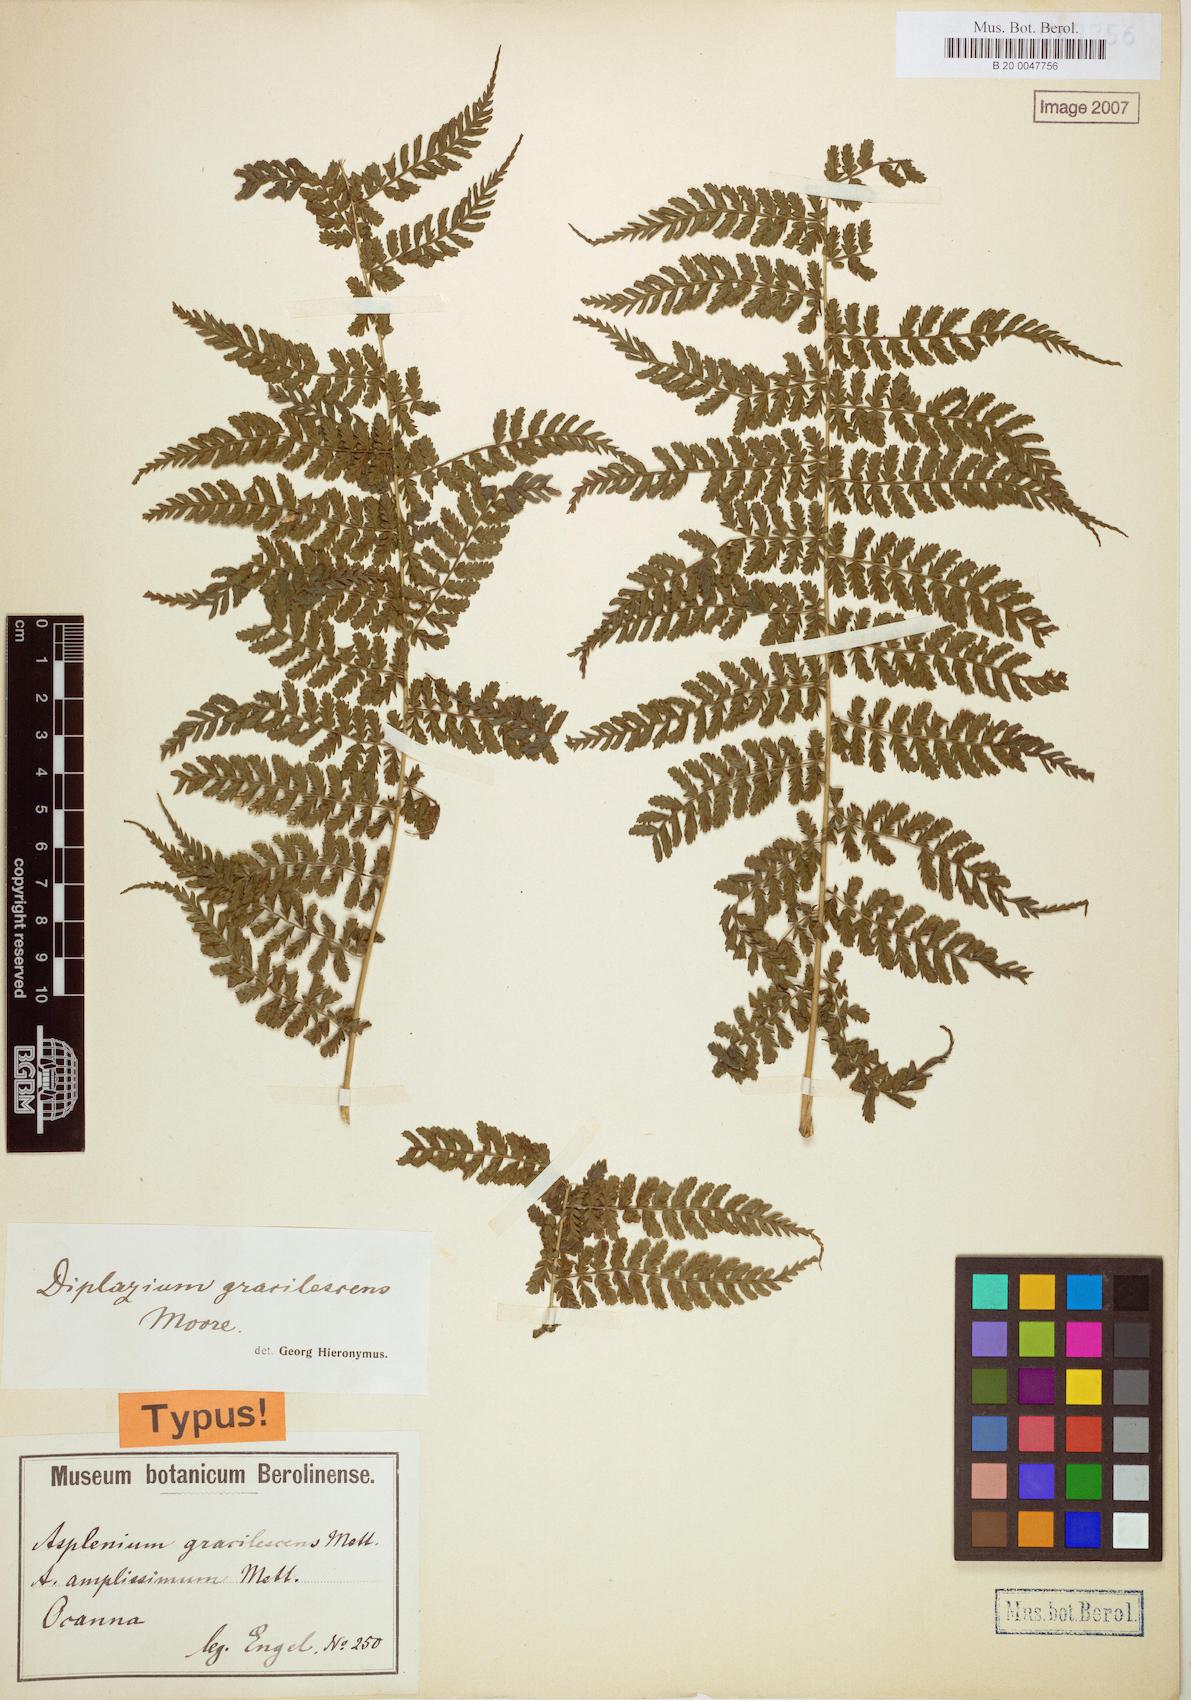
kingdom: Plantae
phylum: Tracheophyta
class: Polypodiopsida
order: Polypodiales
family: Athyriaceae
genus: Diplazium
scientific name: Diplazium gracilescens
